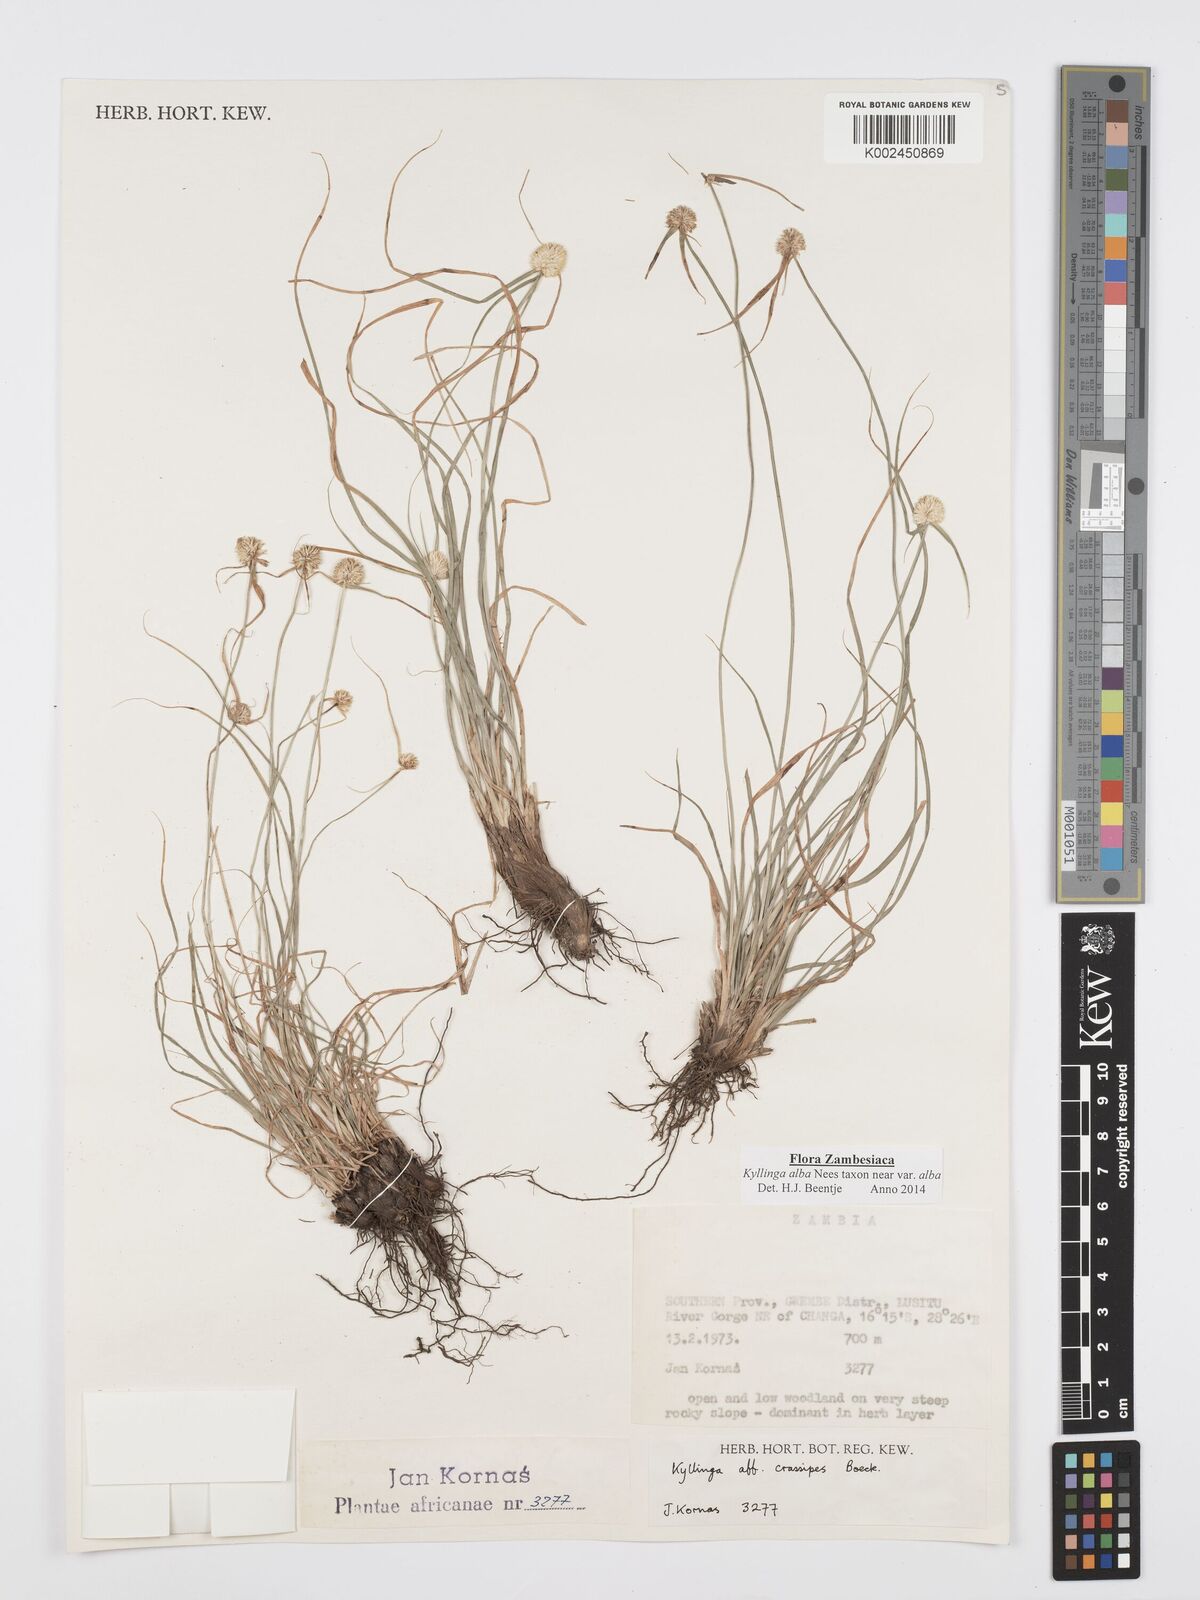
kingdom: Plantae
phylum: Tracheophyta
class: Liliopsida
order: Poales
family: Cyperaceae
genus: Cyperus
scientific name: Cyperus
